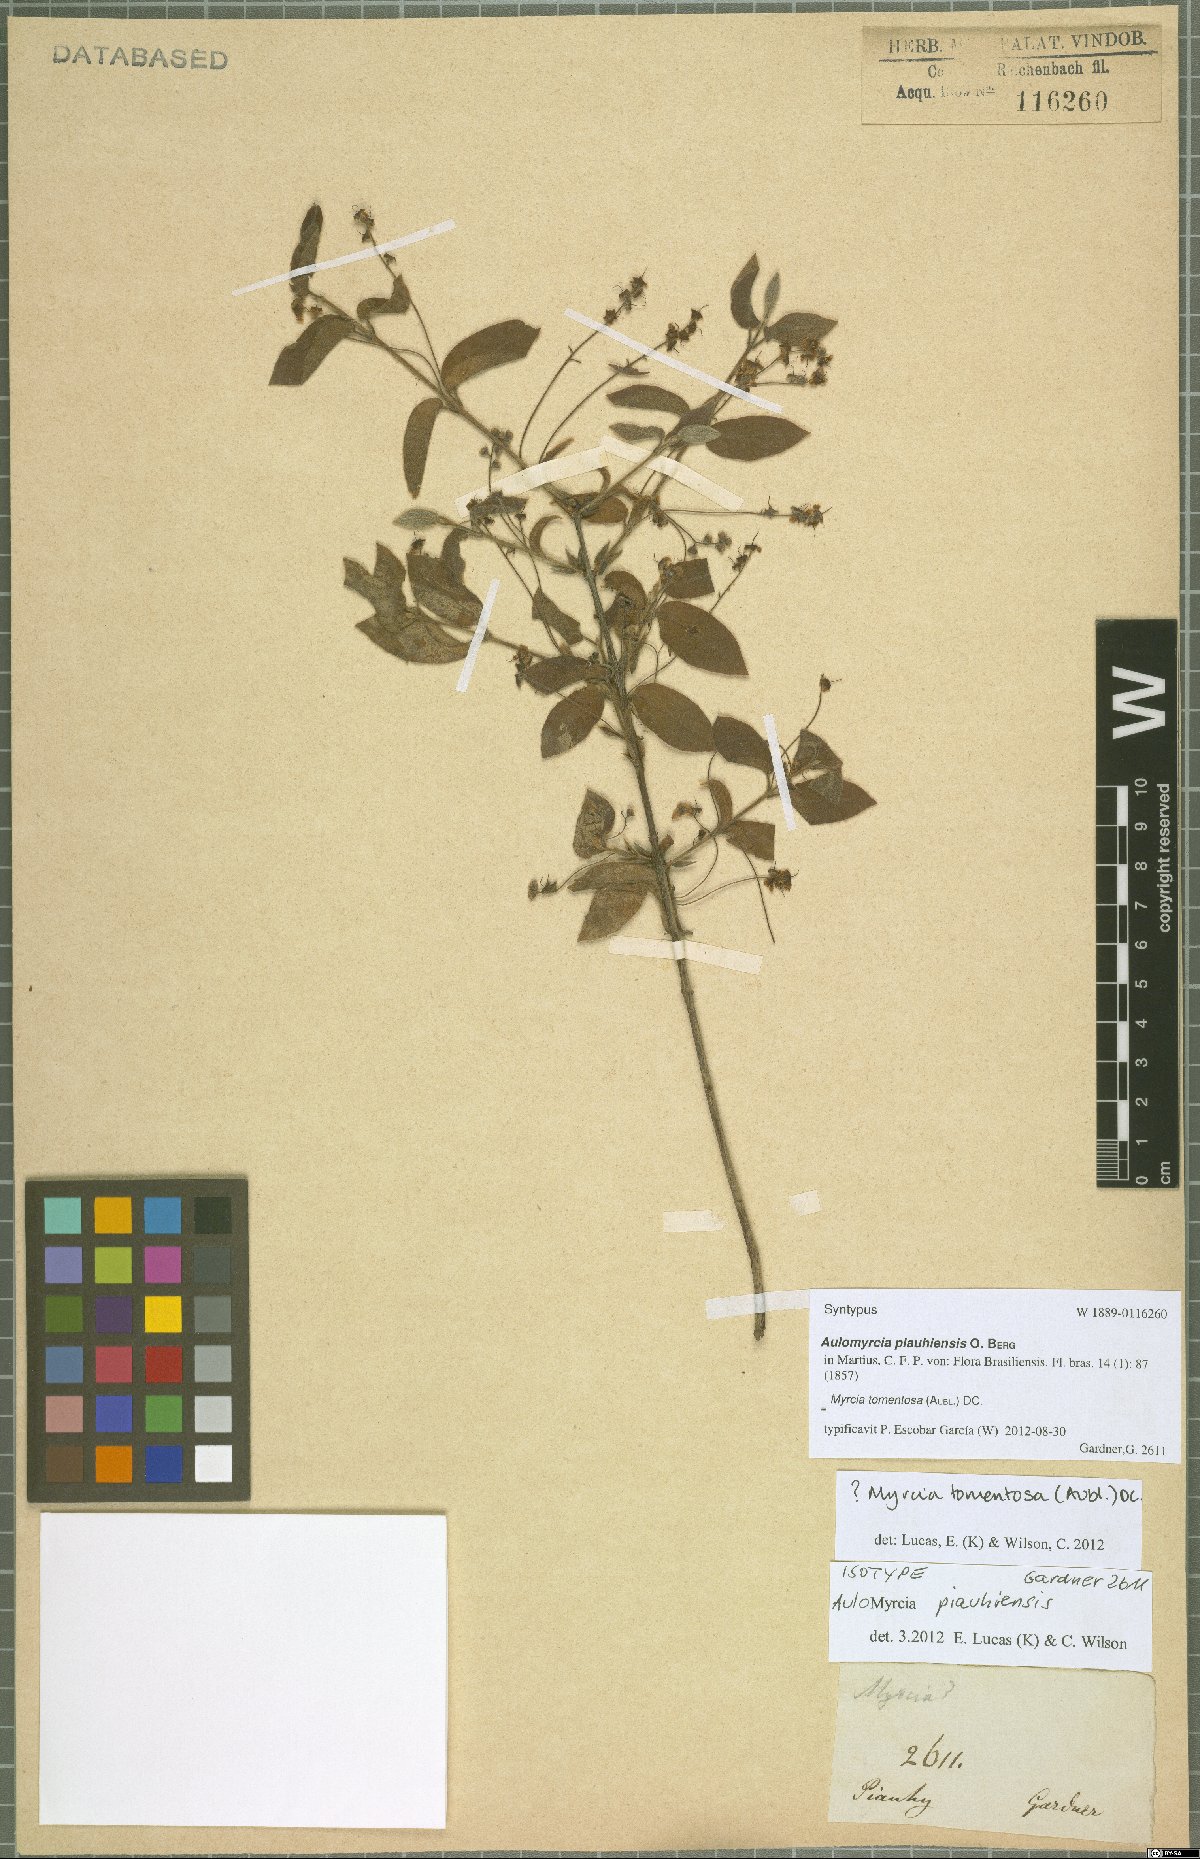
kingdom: Plantae
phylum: Tracheophyta
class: Magnoliopsida
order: Myrtales
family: Myrtaceae
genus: Myrcia
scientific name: Myrcia tomentosa
